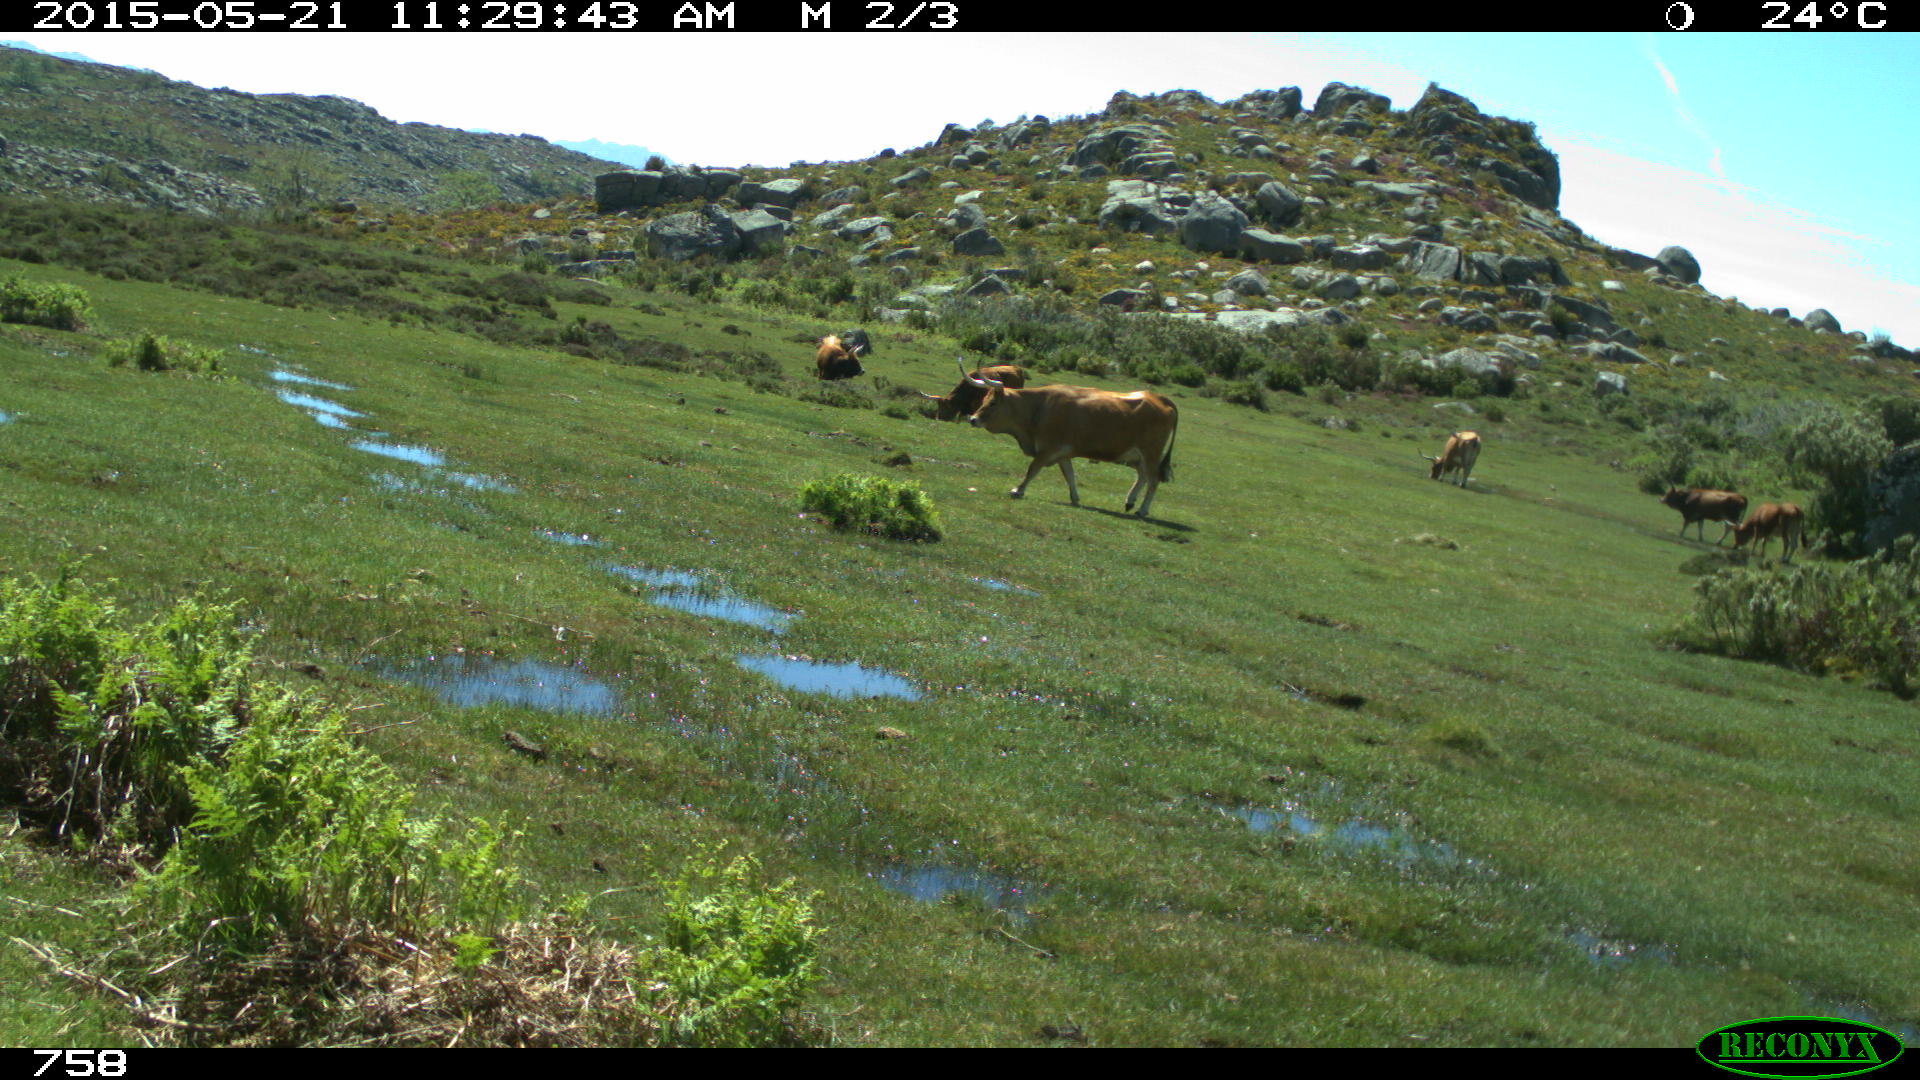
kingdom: Animalia
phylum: Chordata
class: Mammalia
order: Artiodactyla
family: Bovidae
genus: Bos
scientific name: Bos taurus
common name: Domesticated cattle
